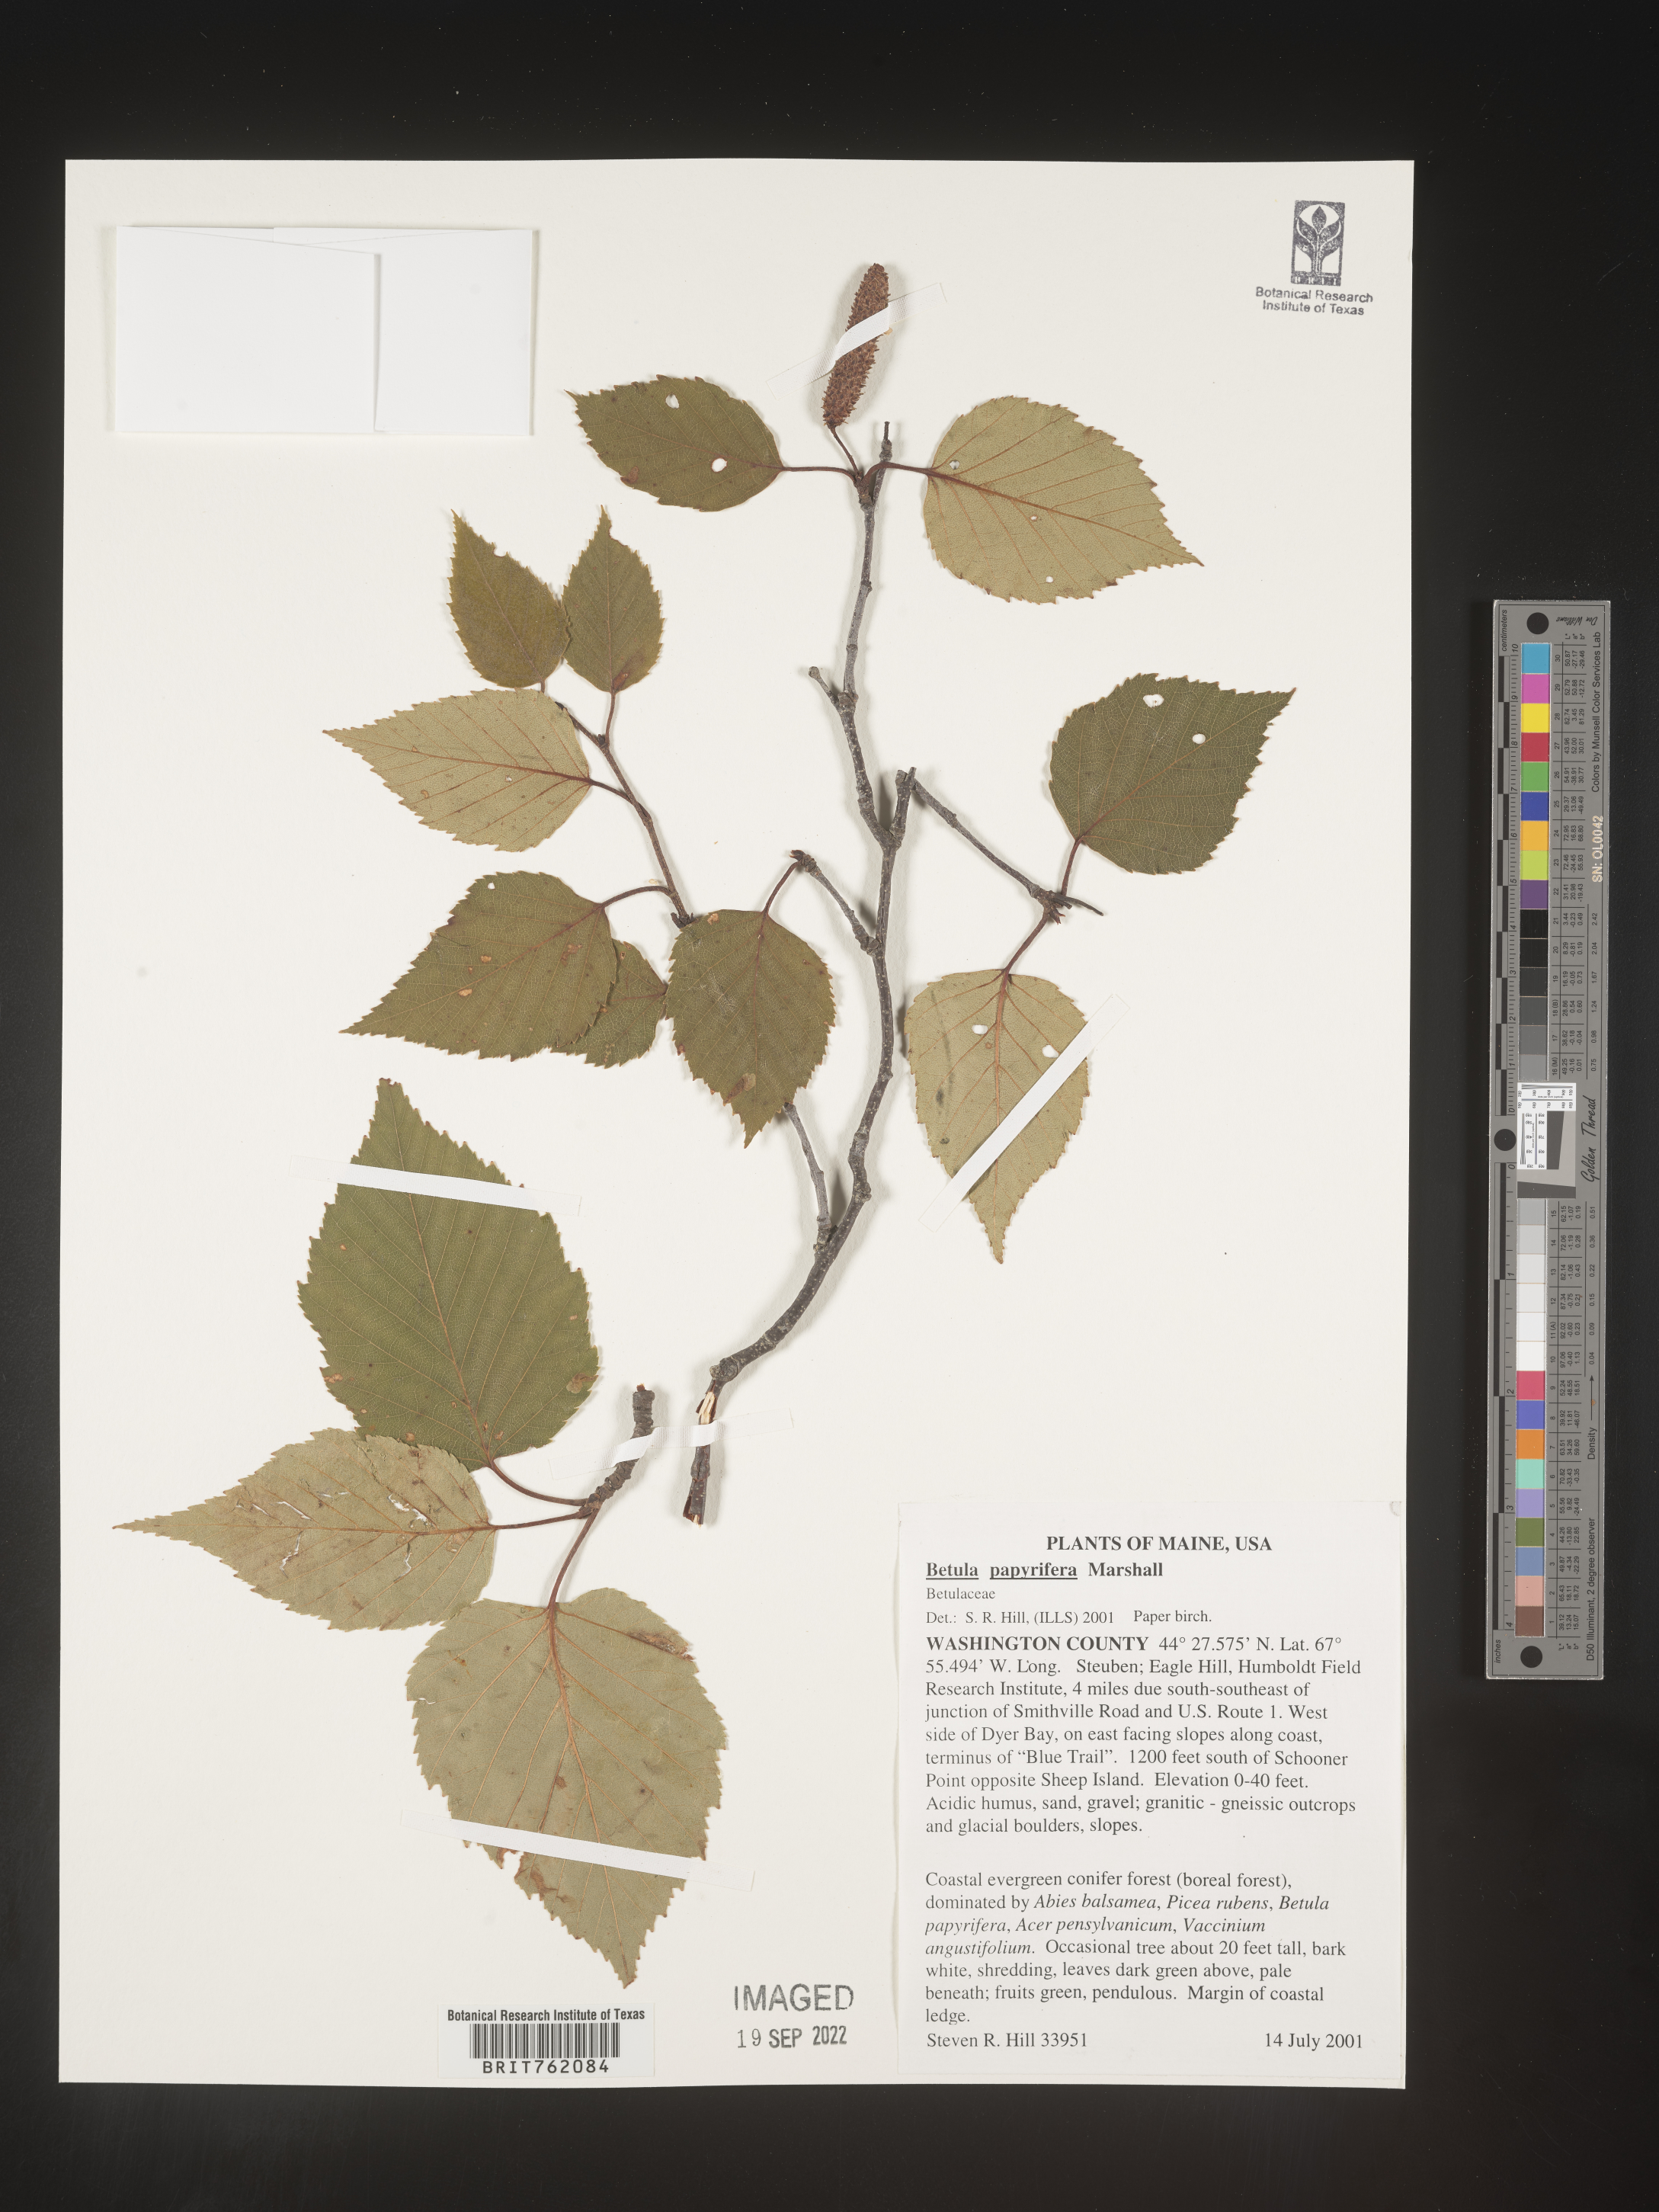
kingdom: Plantae
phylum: Tracheophyta
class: Magnoliopsida
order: Fagales
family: Betulaceae
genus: Betula
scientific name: Betula papyrifera
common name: Paper birch
